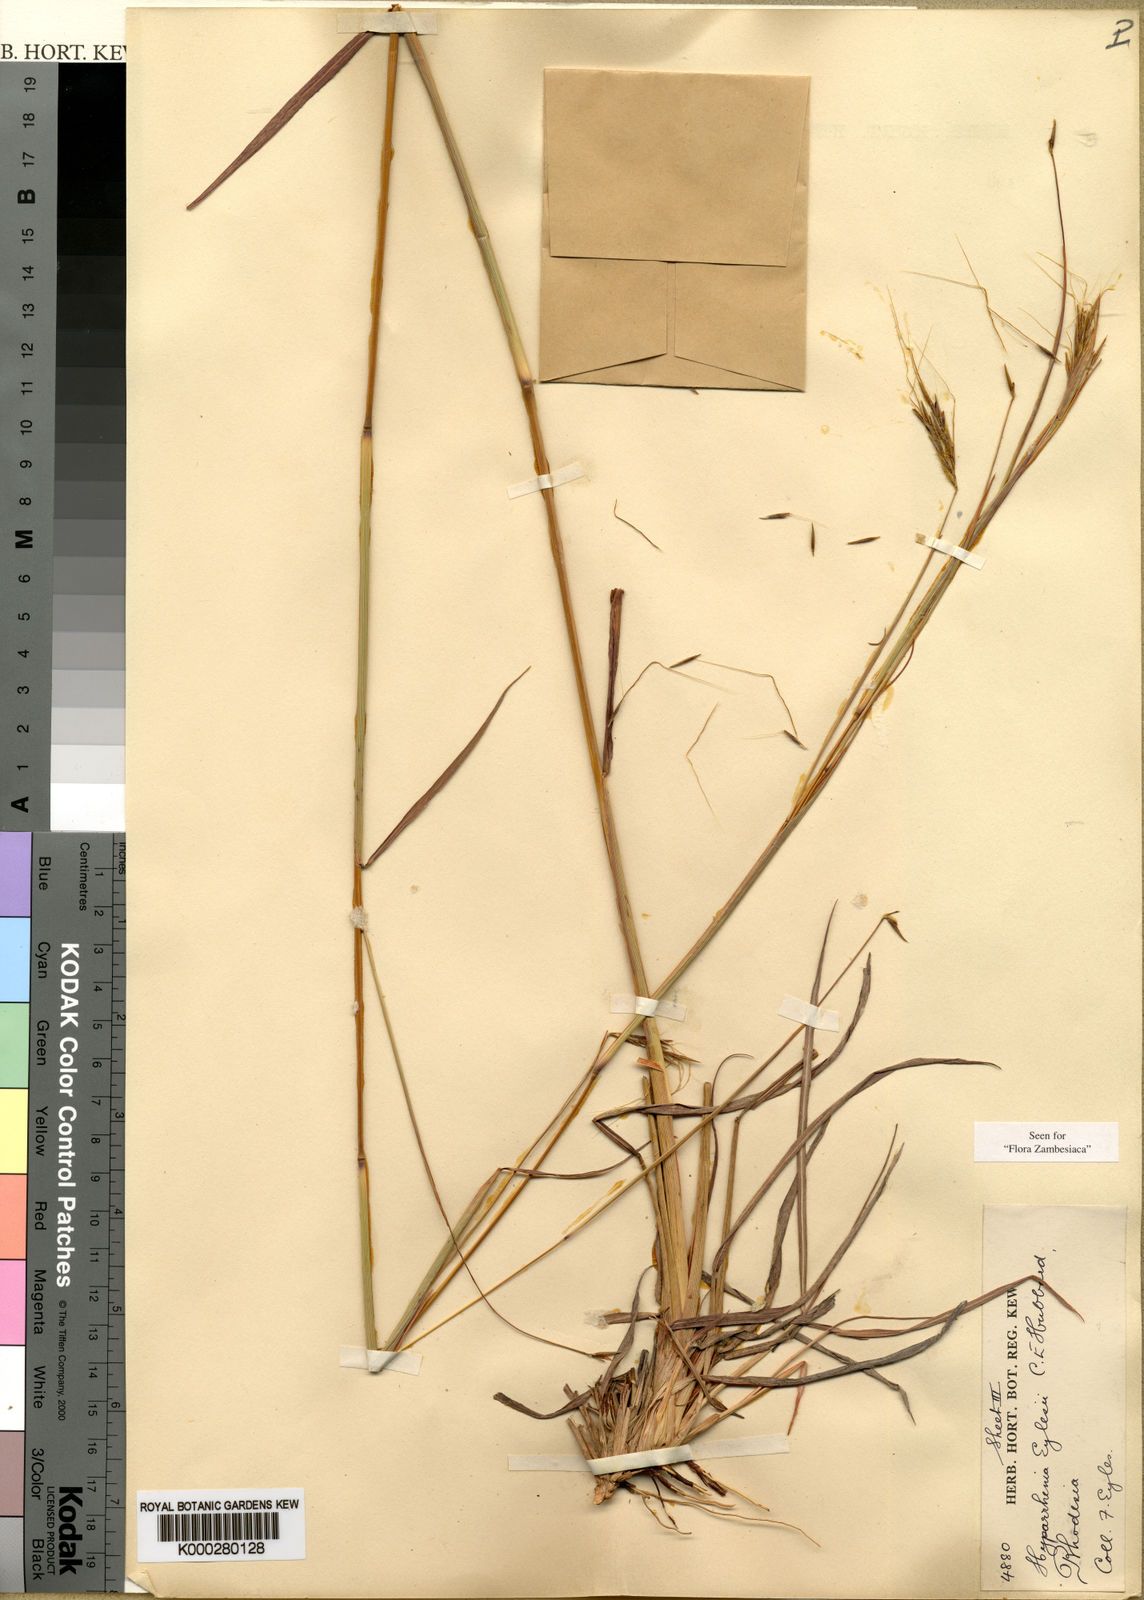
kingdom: Plantae
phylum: Tracheophyta
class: Liliopsida
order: Poales
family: Poaceae
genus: Elymandra
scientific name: Elymandra grallata
